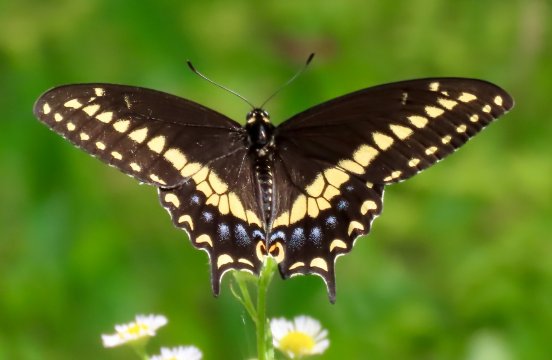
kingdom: Animalia
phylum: Arthropoda
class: Insecta
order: Lepidoptera
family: Papilionidae
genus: Papilio
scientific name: Papilio polyxenes
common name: Black Swallowtail
